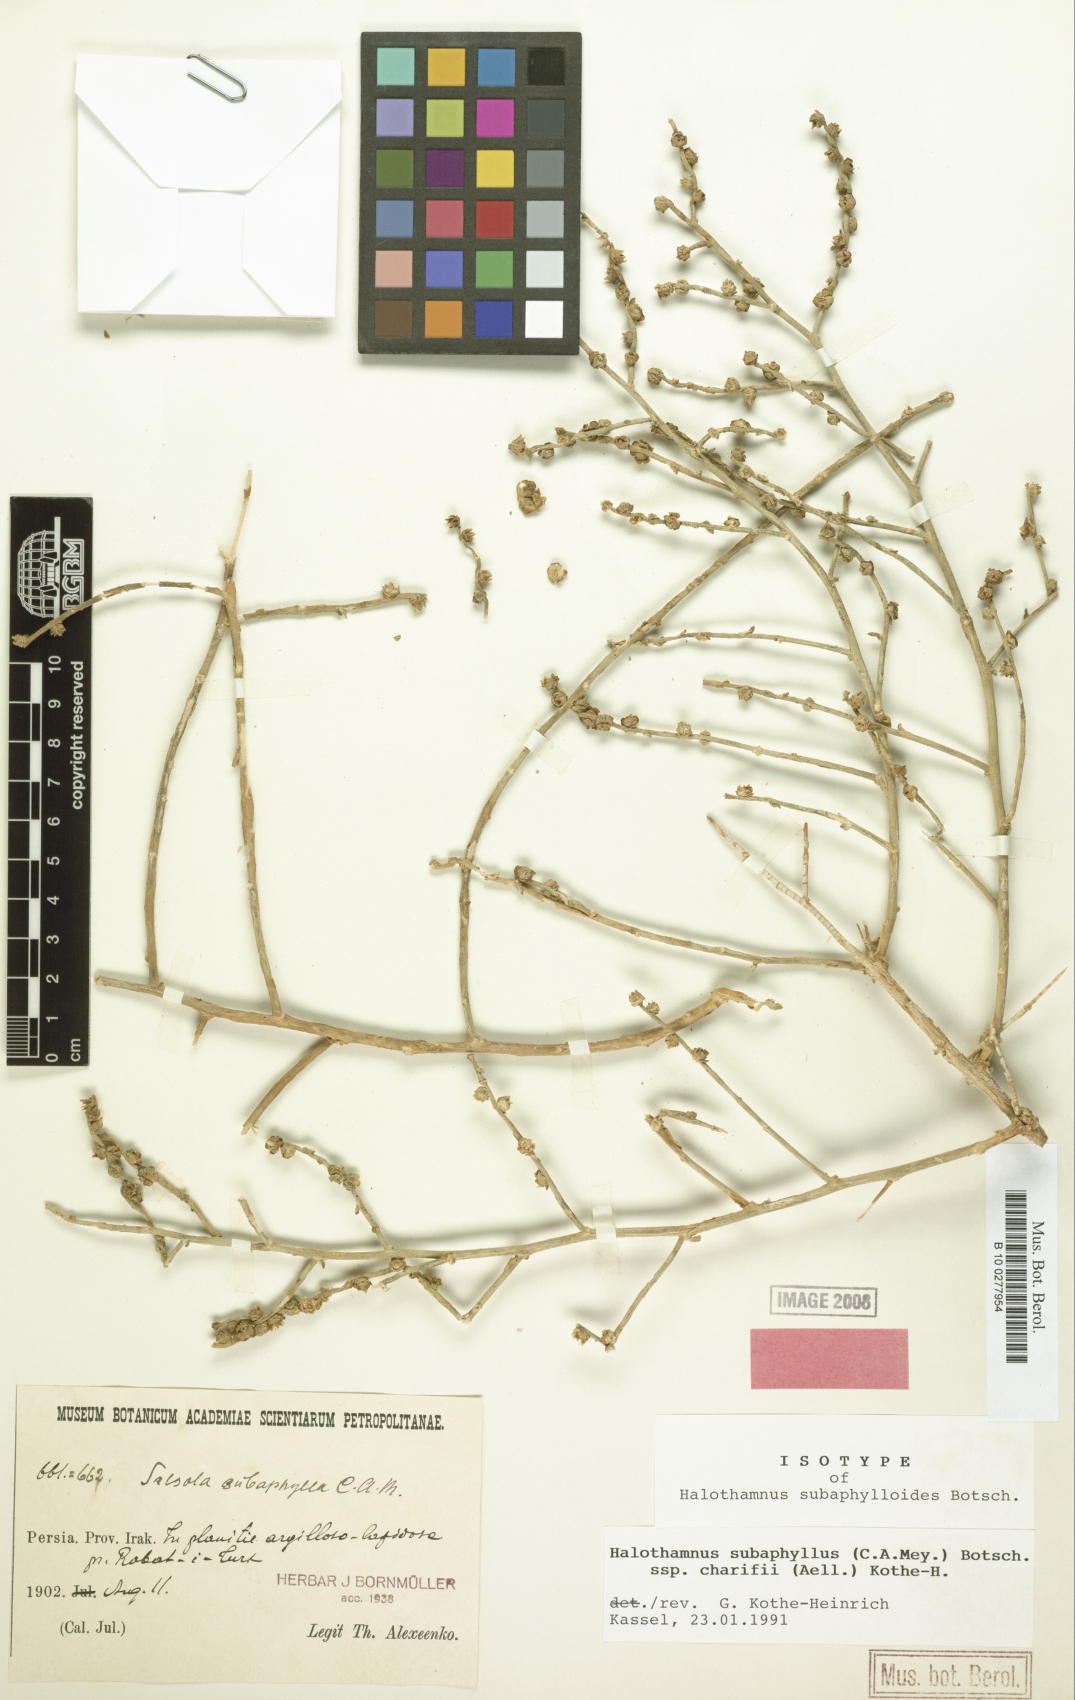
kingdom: Plantae
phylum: Tracheophyta
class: Magnoliopsida
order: Caryophyllales
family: Amaranthaceae
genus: Halothamnus
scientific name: Halothamnus subaphyllus
